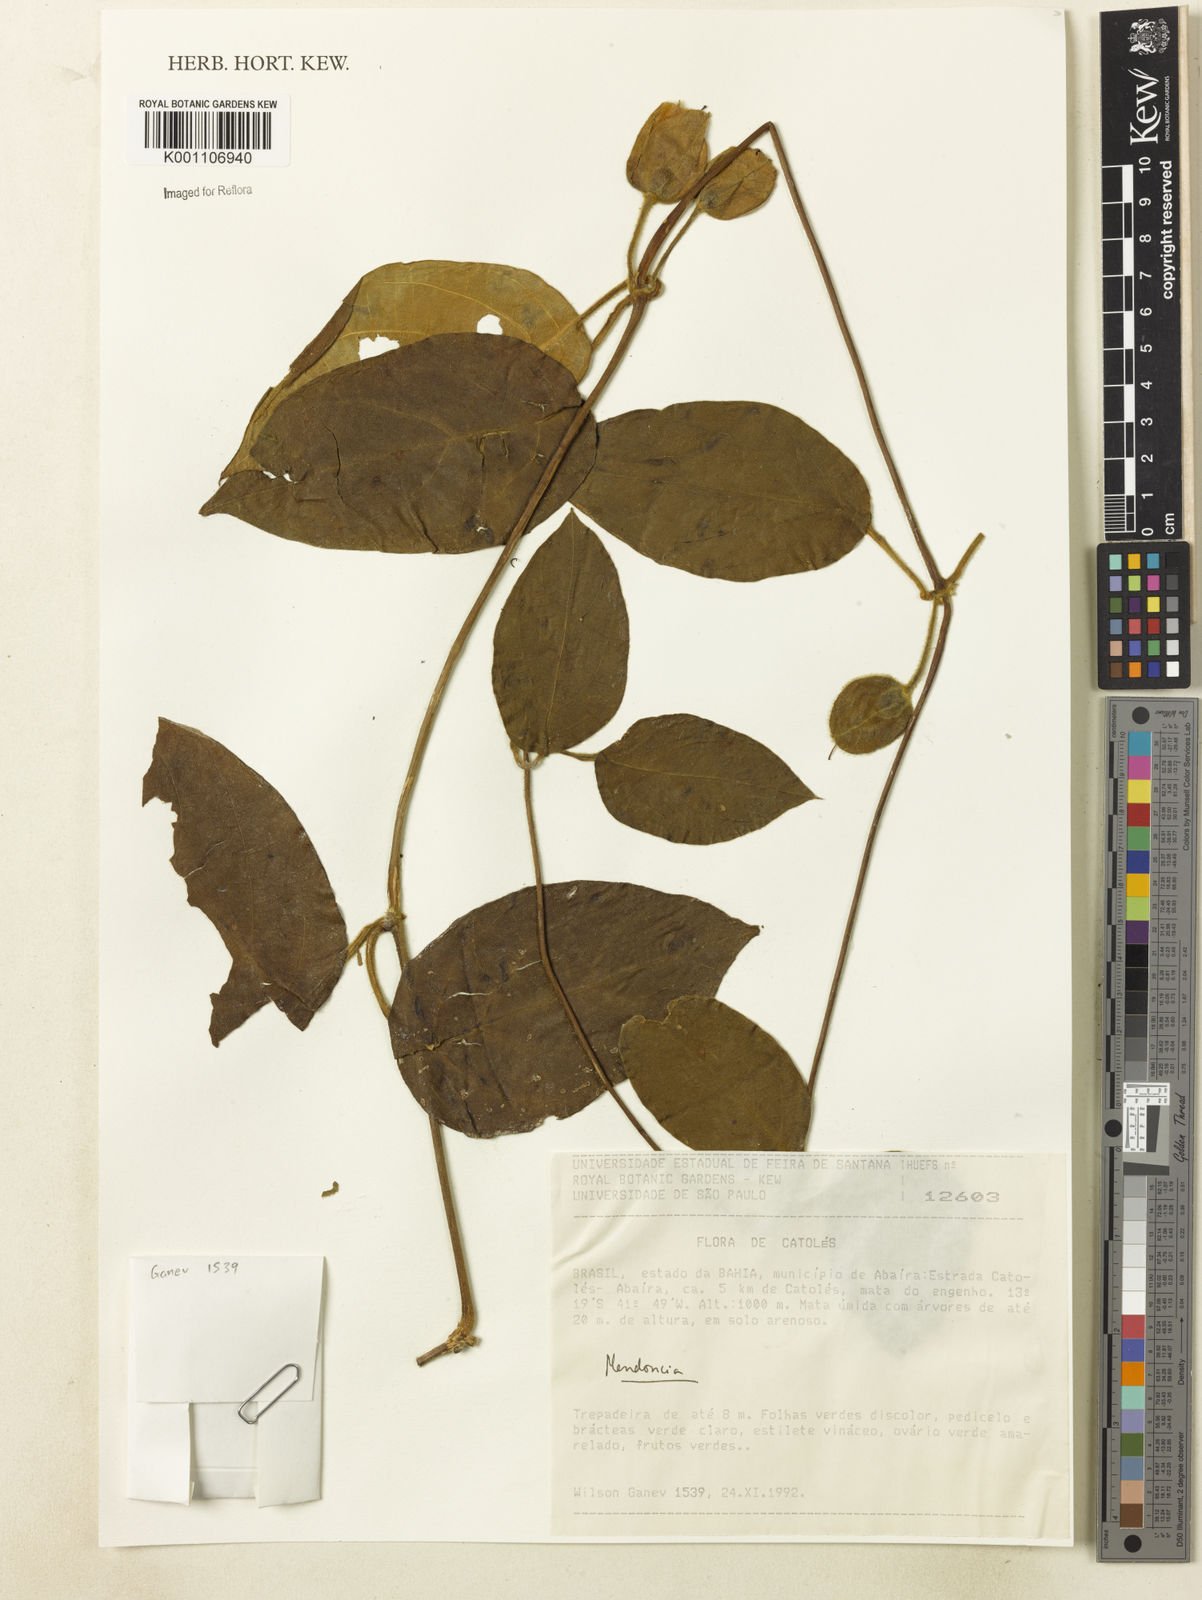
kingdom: Plantae
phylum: Tracheophyta
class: Magnoliopsida
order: Lamiales
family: Acanthaceae
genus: Mendoncia
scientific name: Mendoncia mollis
